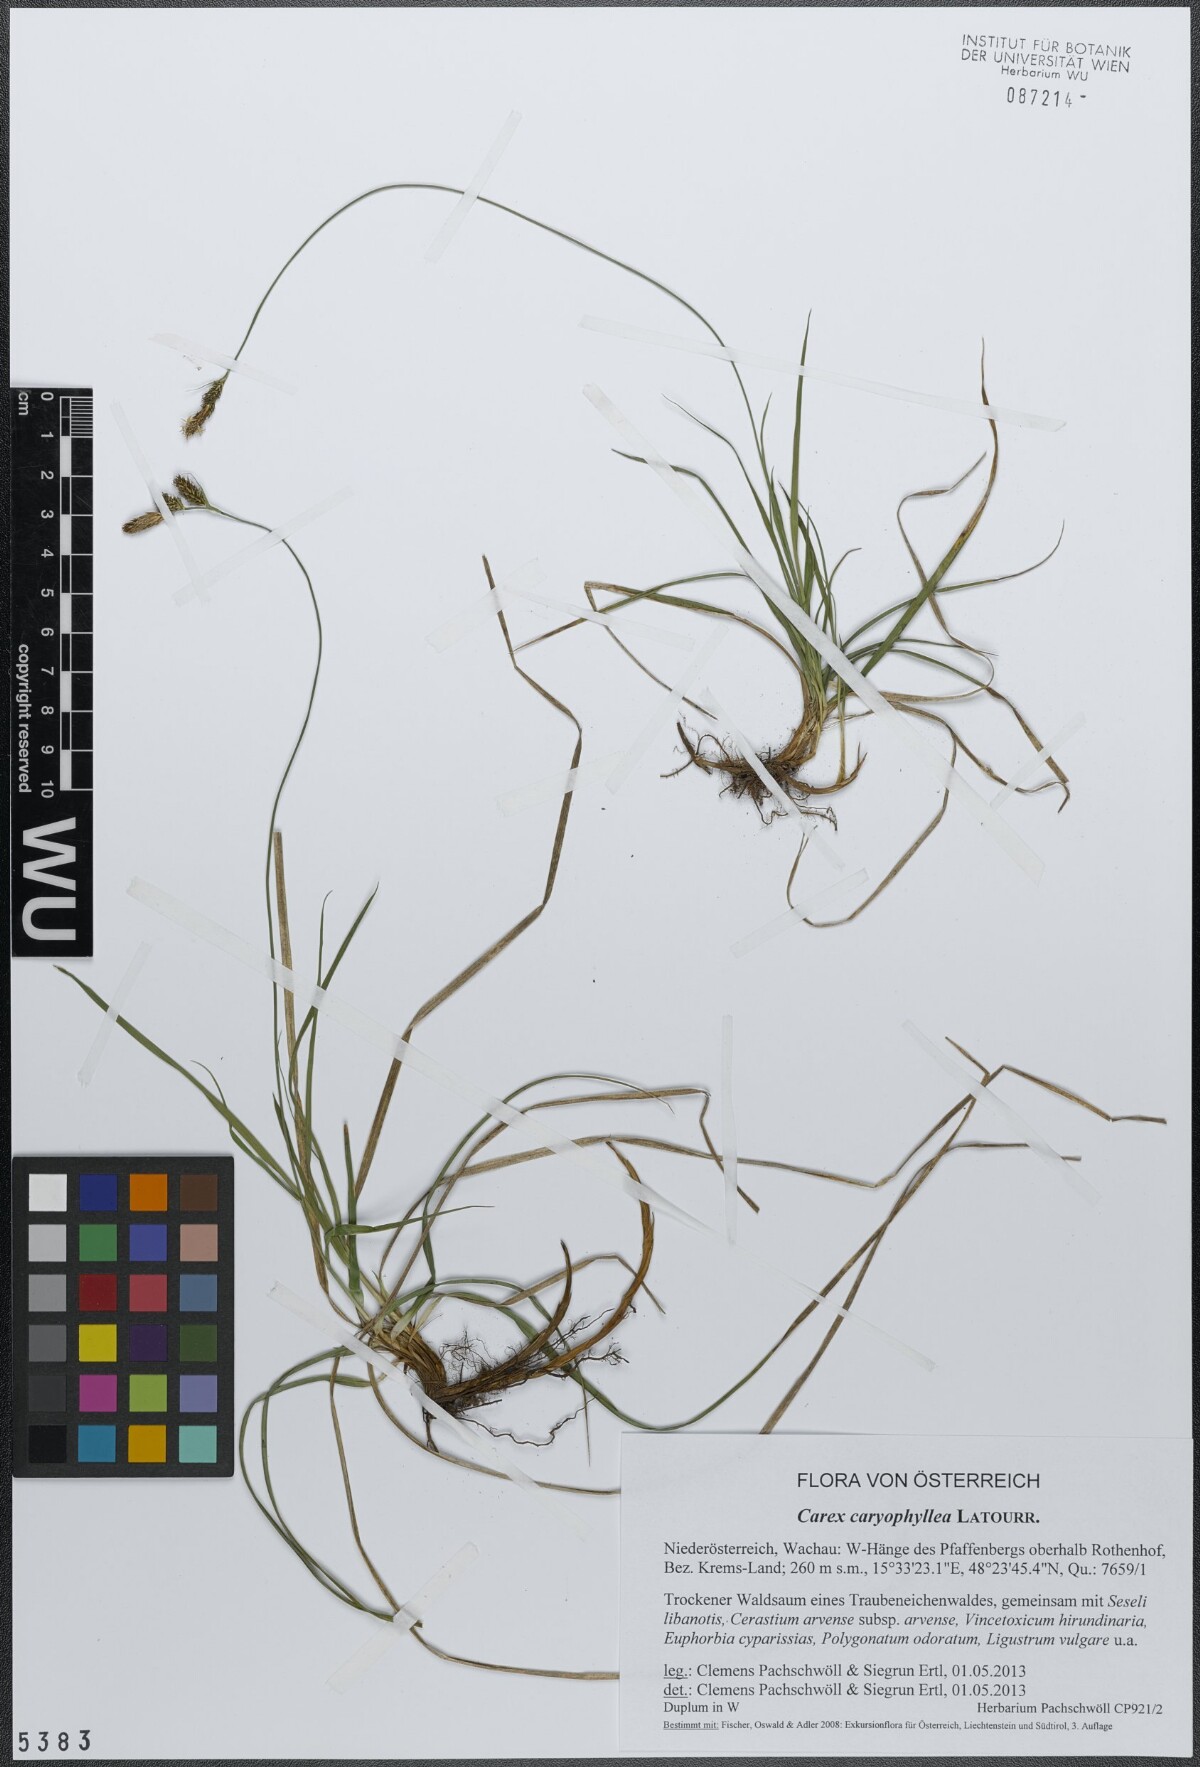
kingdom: Plantae
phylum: Tracheophyta
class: Liliopsida
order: Poales
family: Cyperaceae
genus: Carex
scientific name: Carex caryophyllea
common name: Spring sedge
